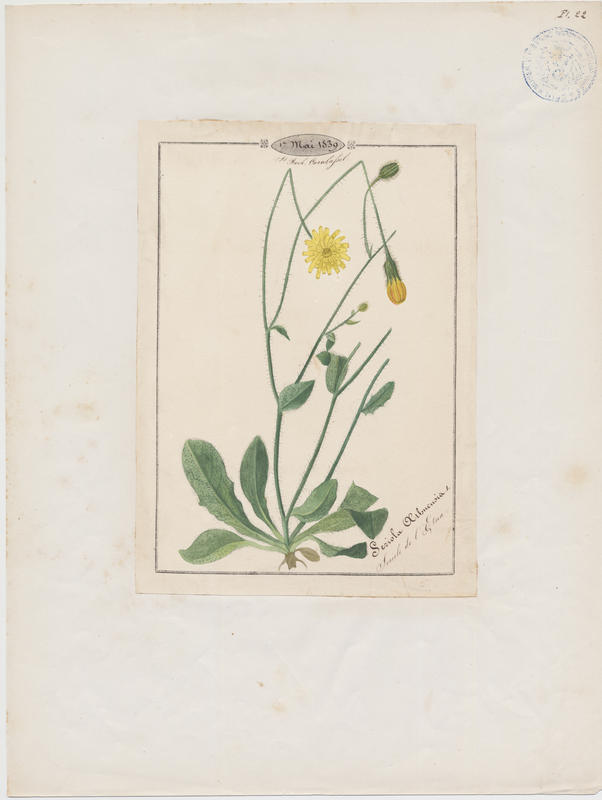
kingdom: Plantae
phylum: Tracheophyta
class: Magnoliopsida
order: Asterales
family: Asteraceae
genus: Achyrophorus
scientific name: Achyrophorus valdesii
